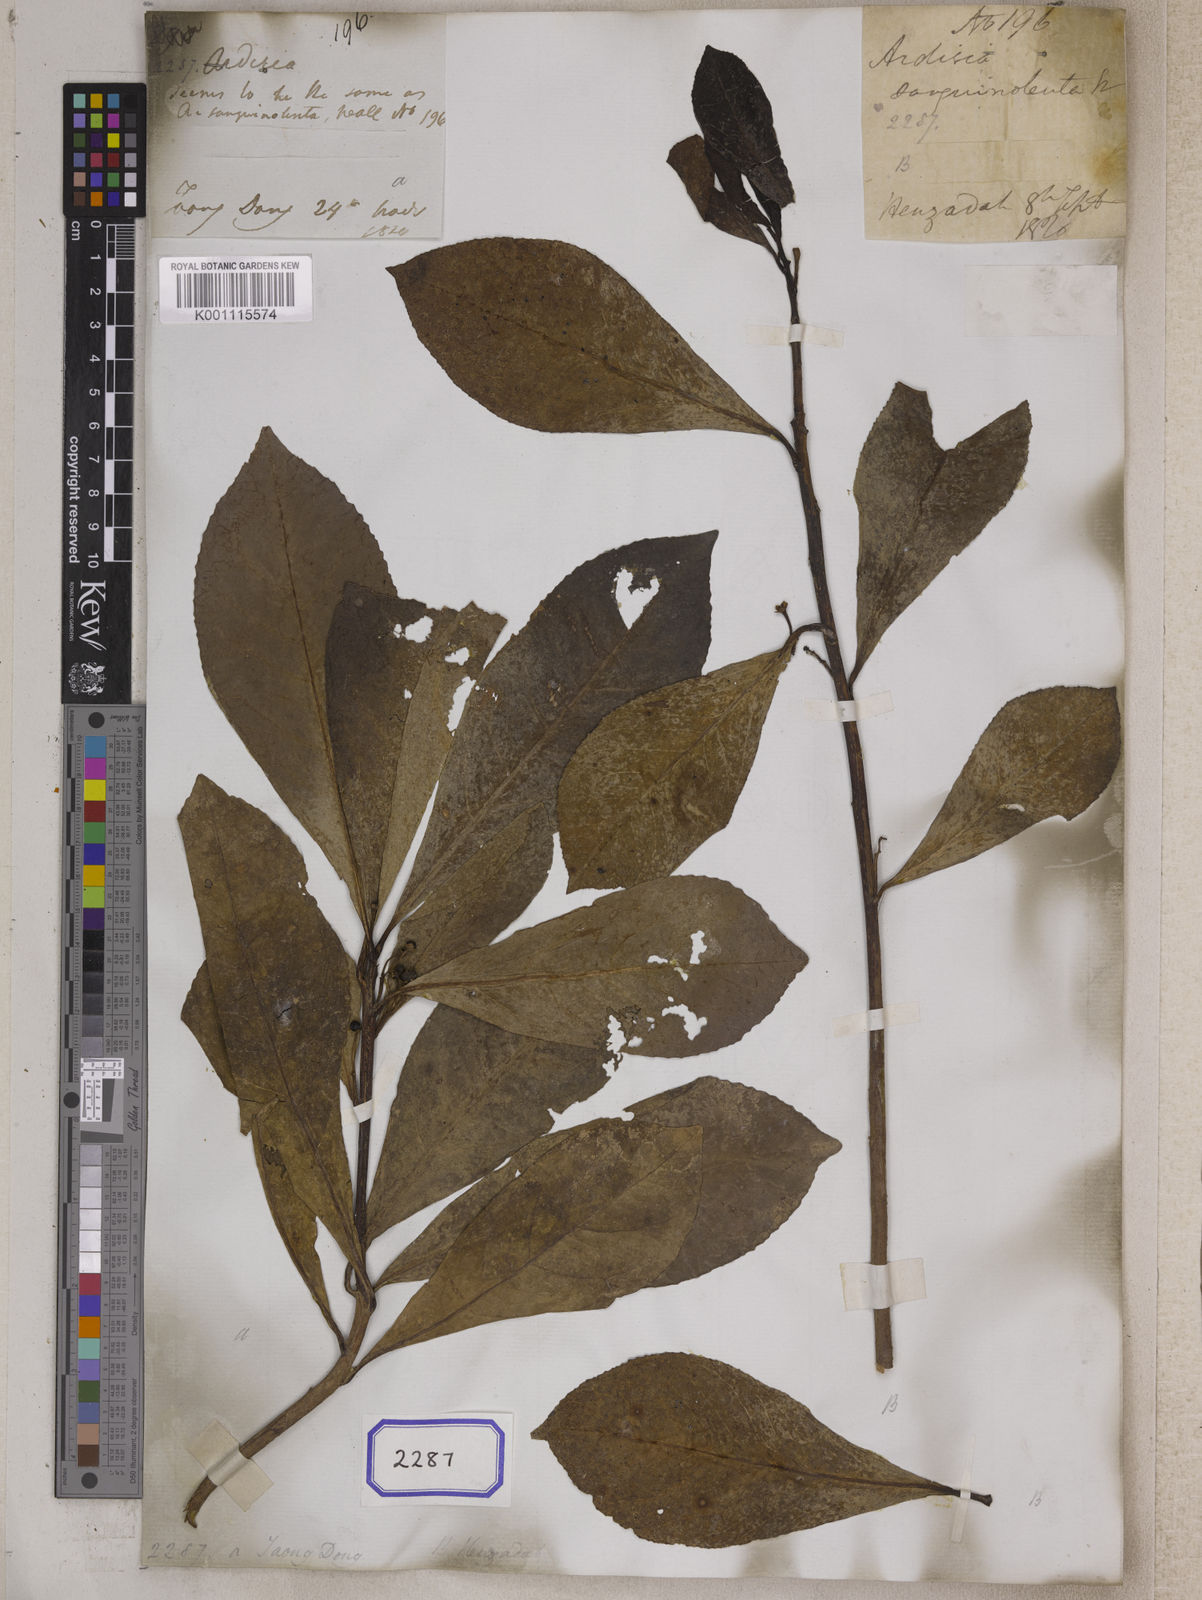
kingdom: Plantae
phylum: Tracheophyta
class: Magnoliopsida
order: Ericales
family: Primulaceae
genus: Ardisia
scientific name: Ardisia
